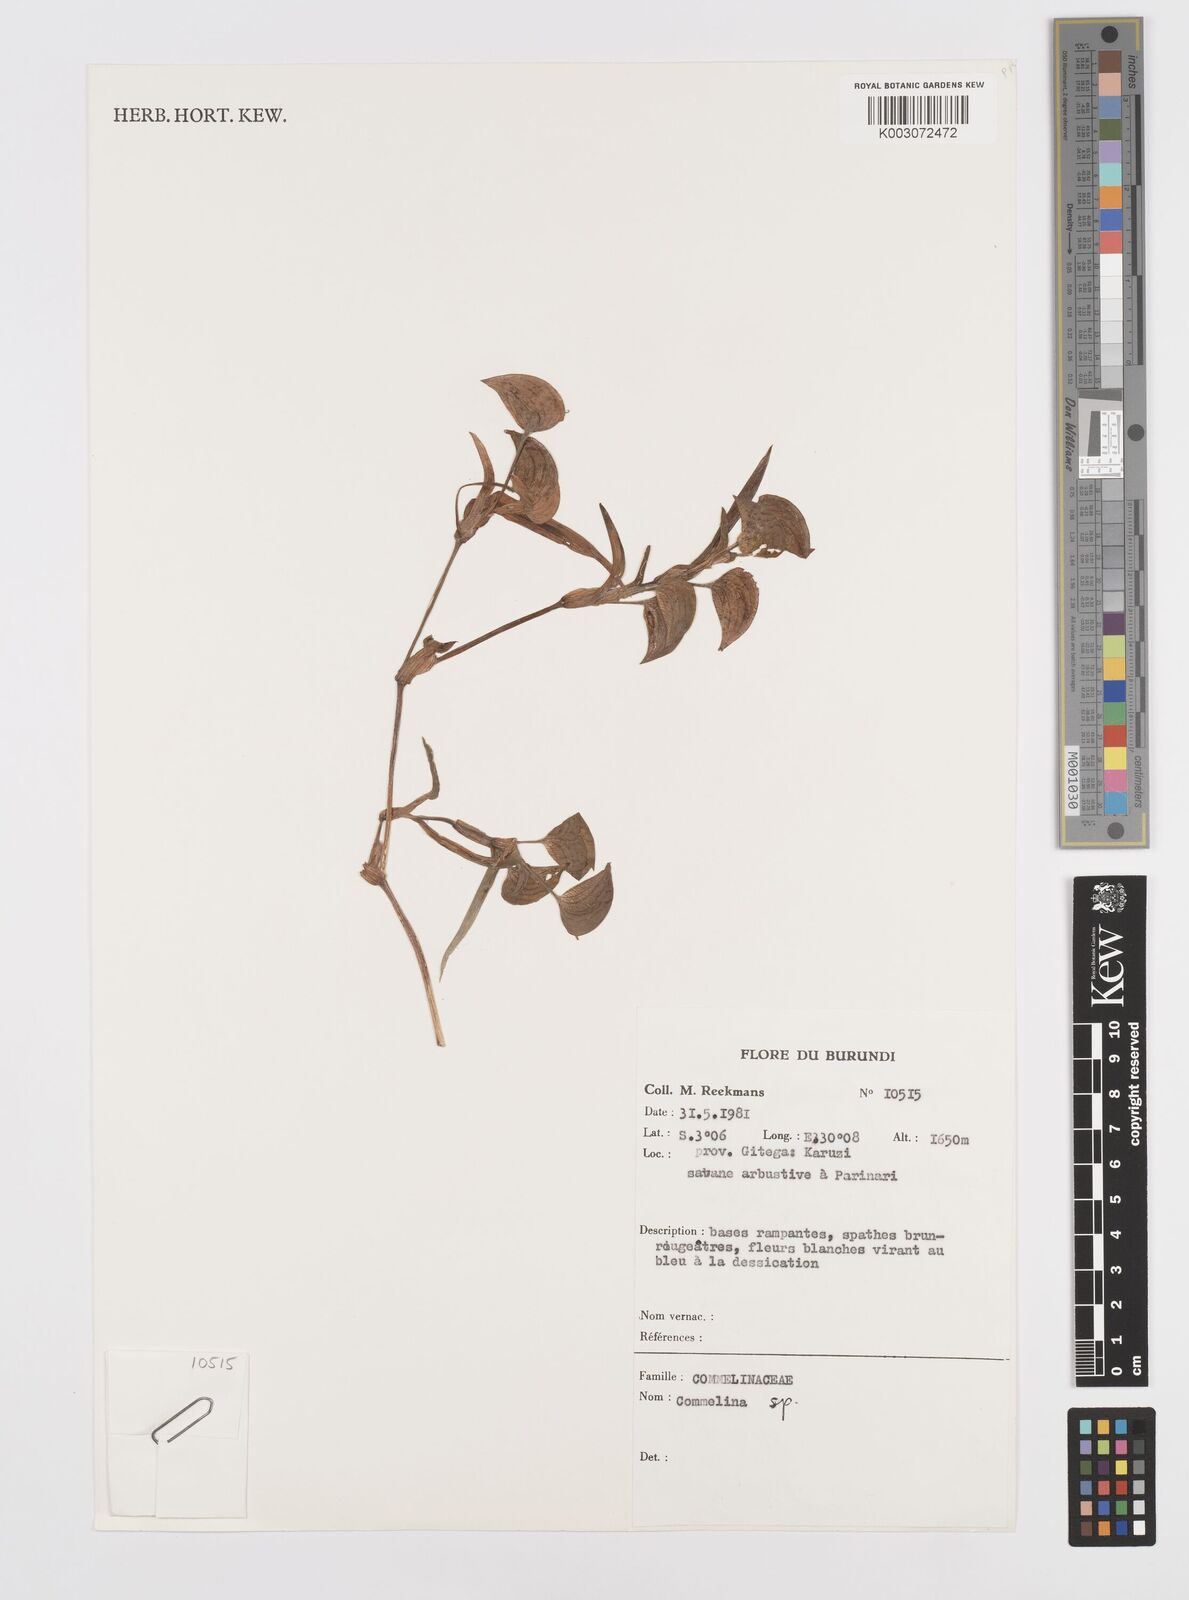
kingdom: Plantae
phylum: Tracheophyta
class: Liliopsida
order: Commelinales
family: Commelinaceae
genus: Commelina
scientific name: Commelina
